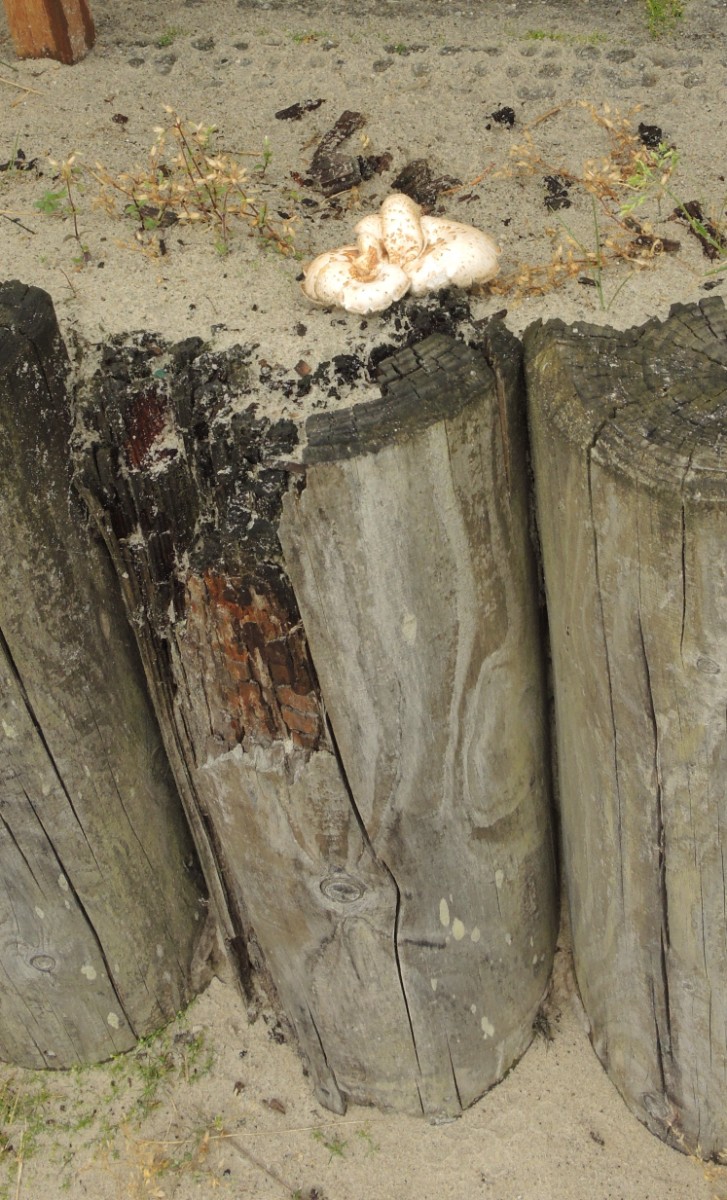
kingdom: Fungi
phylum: Basidiomycota
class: Agaricomycetes
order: Gloeophyllales
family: Gloeophyllaceae
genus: Neolentinus
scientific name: Neolentinus lepideus
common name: skællet sejhat
